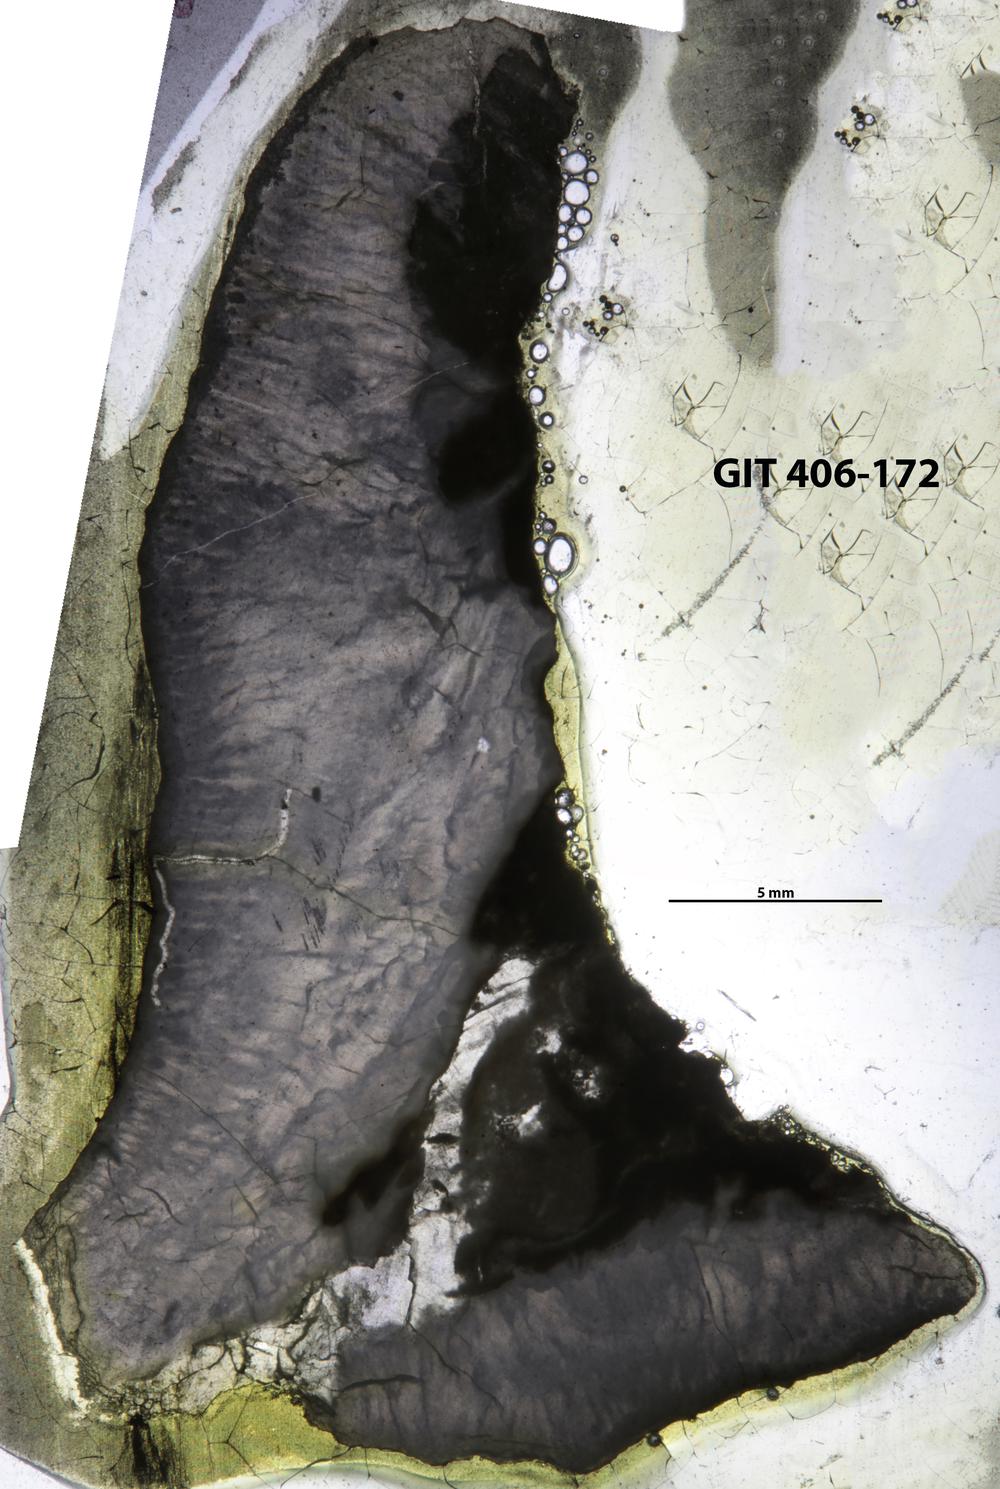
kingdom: Animalia
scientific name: Animalia
